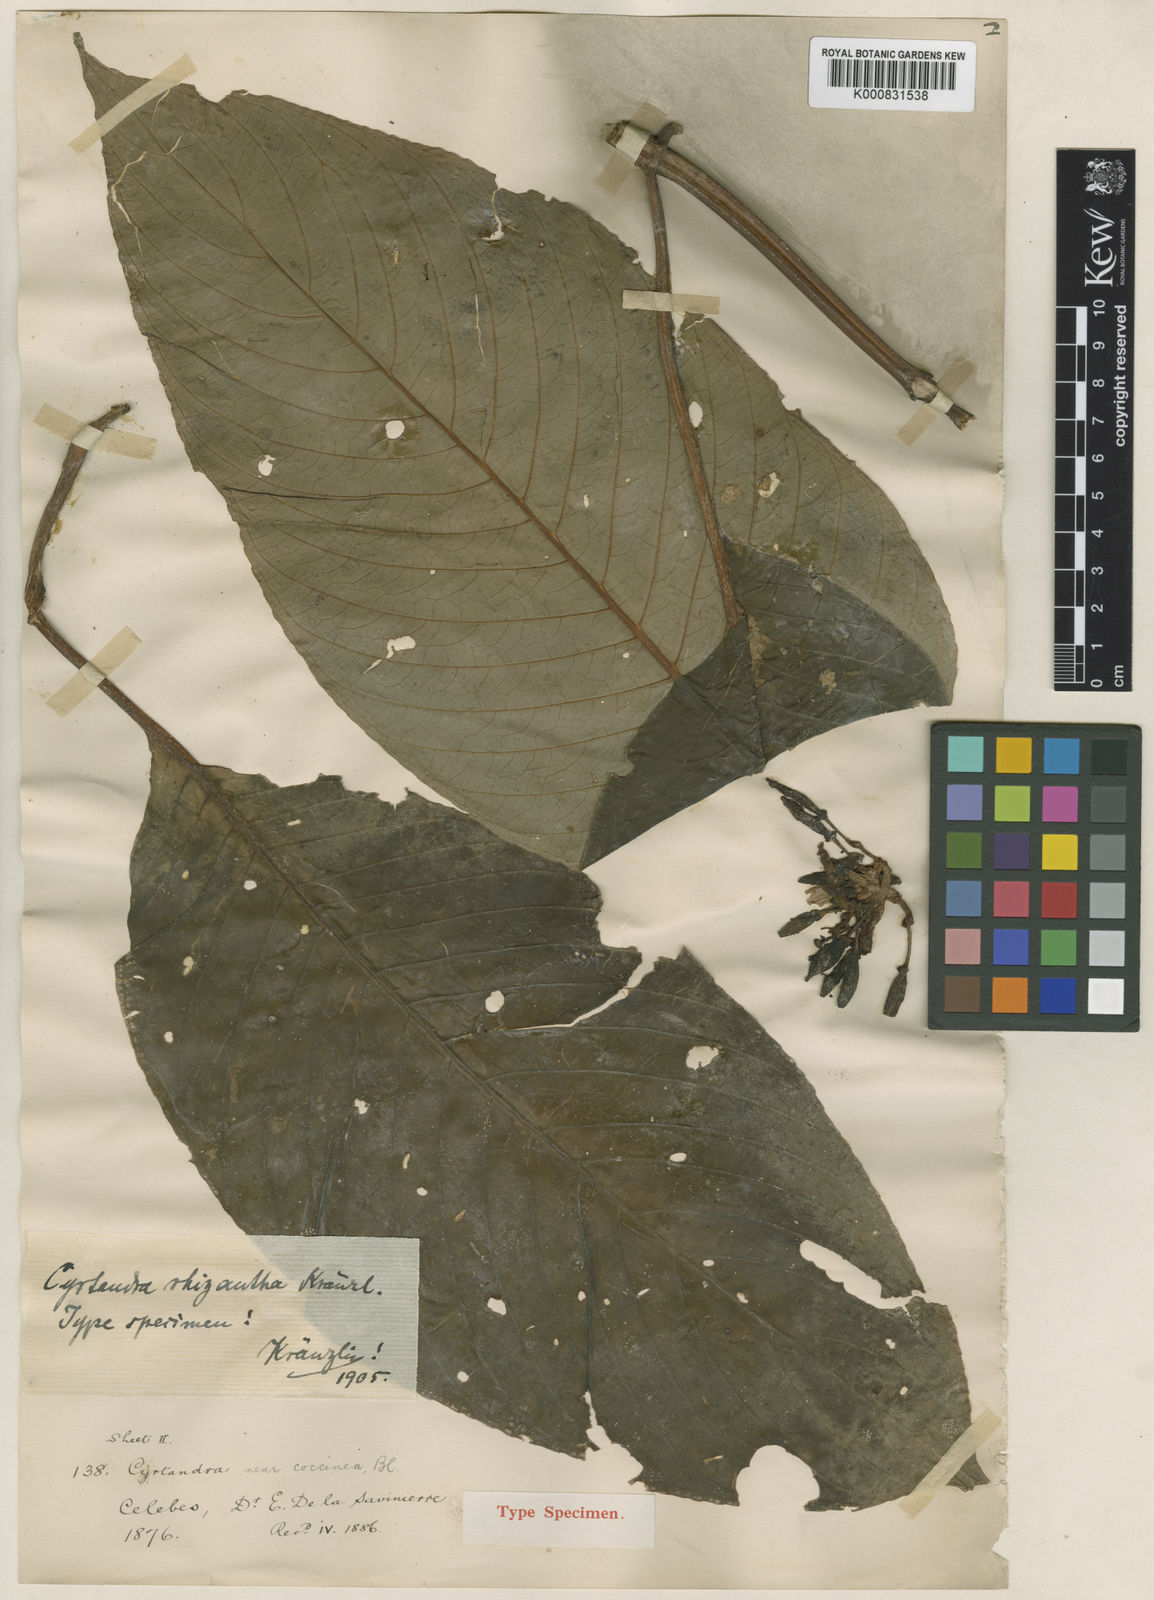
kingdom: Plantae
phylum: Tracheophyta
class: Magnoliopsida
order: Lamiales
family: Gesneriaceae
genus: Cyrtandra
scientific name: Cyrtandra coccinea
